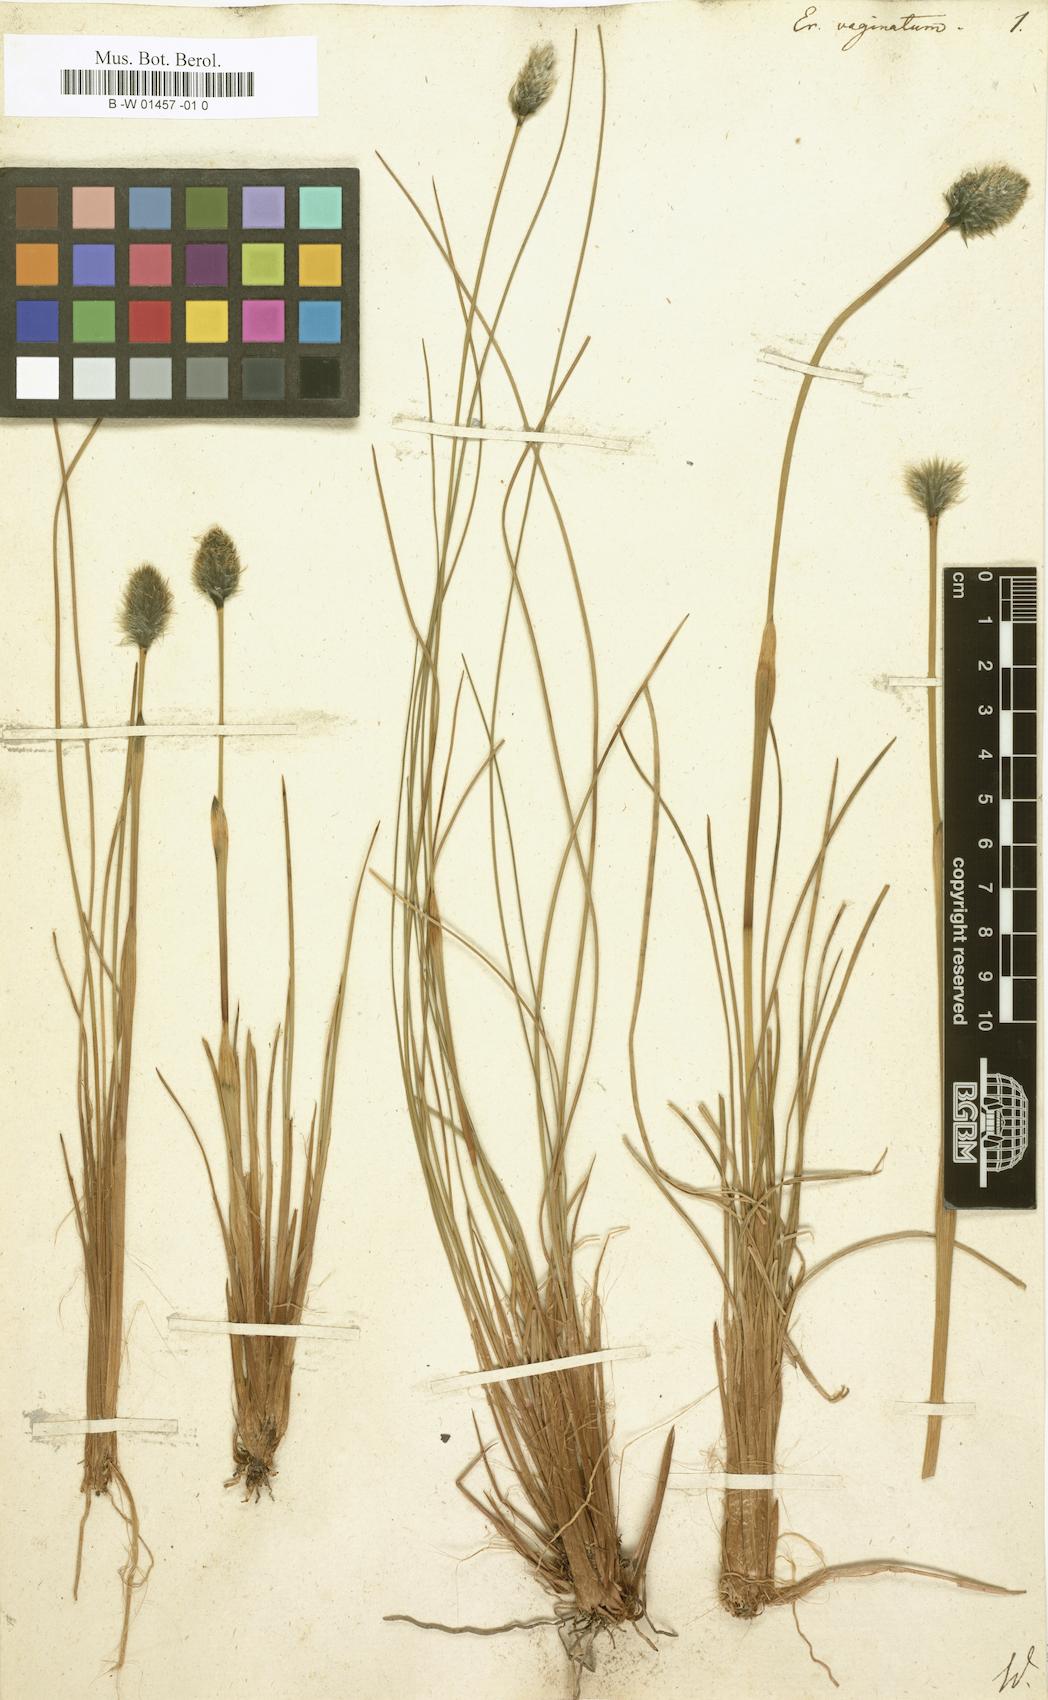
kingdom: Plantae
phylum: Tracheophyta
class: Liliopsida
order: Poales
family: Cyperaceae
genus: Eriophorum
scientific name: Eriophorum vaginatum
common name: Hare's-tail cottongrass
